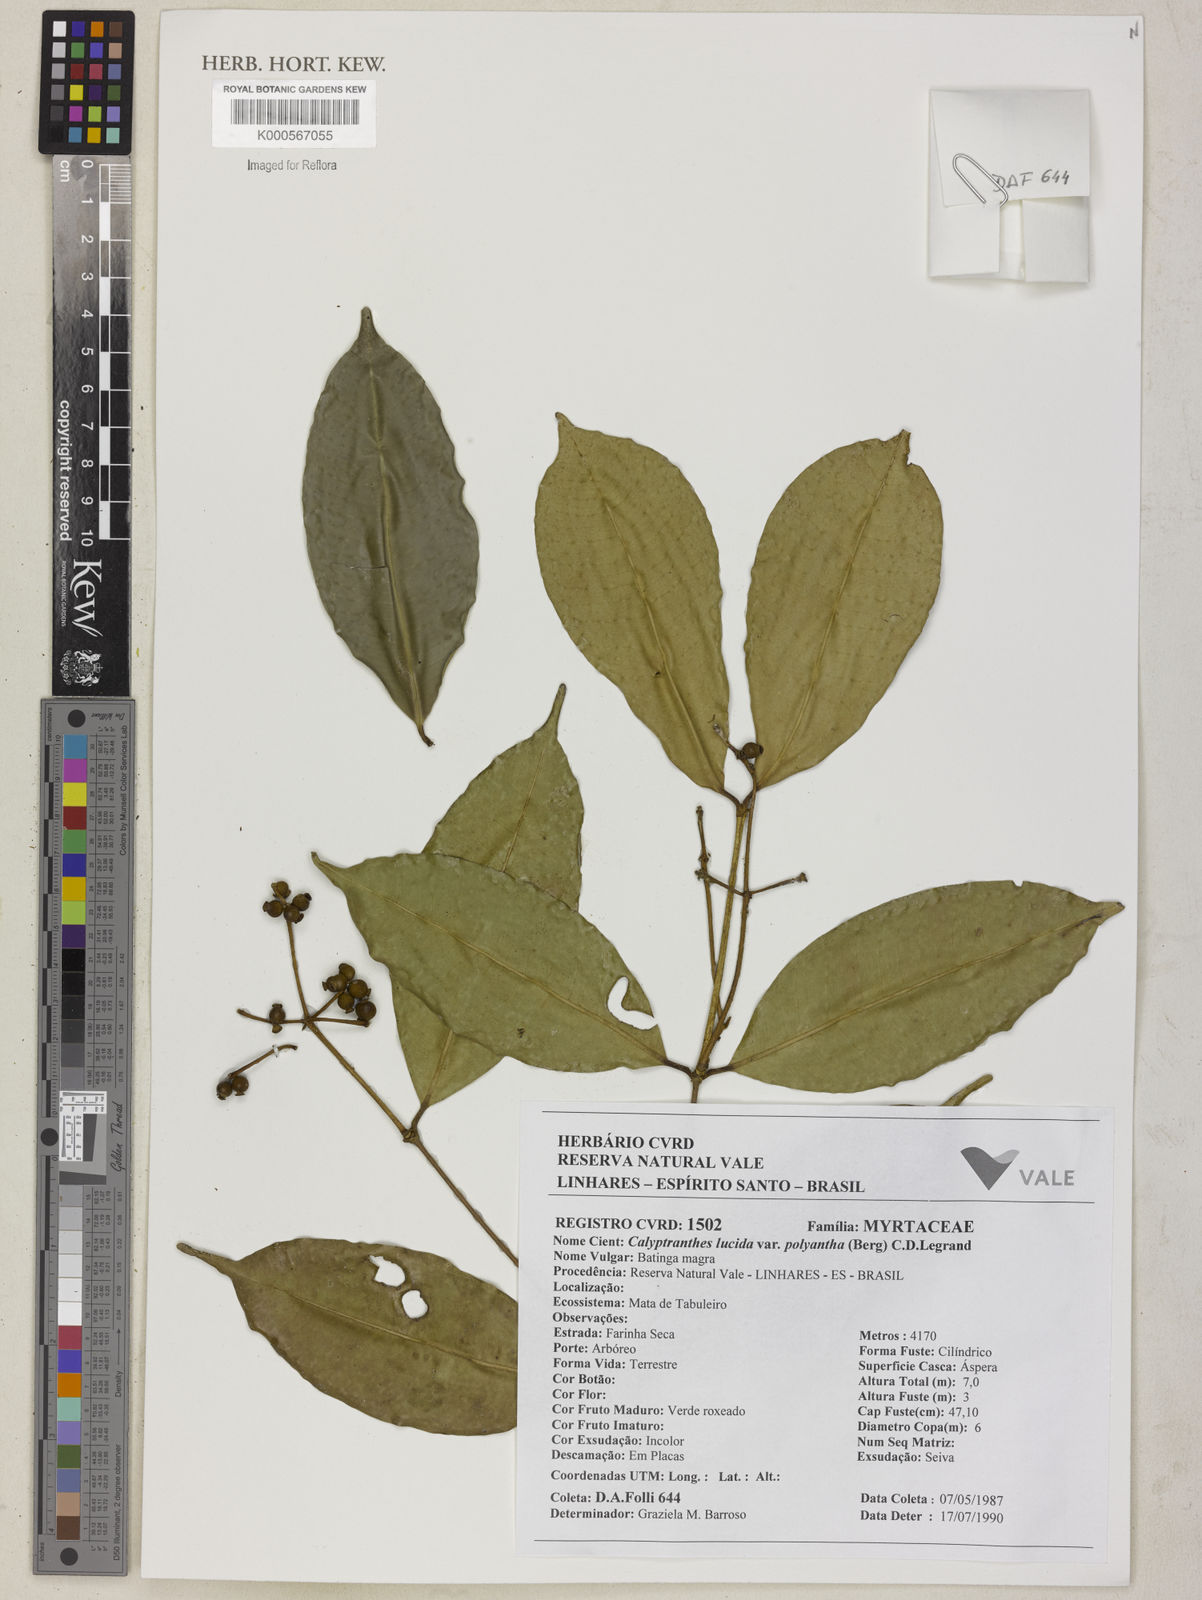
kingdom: Plantae
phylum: Tracheophyta
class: Magnoliopsida
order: Myrtales
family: Myrtaceae
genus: Myrcia
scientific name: Myrcia neolucida
